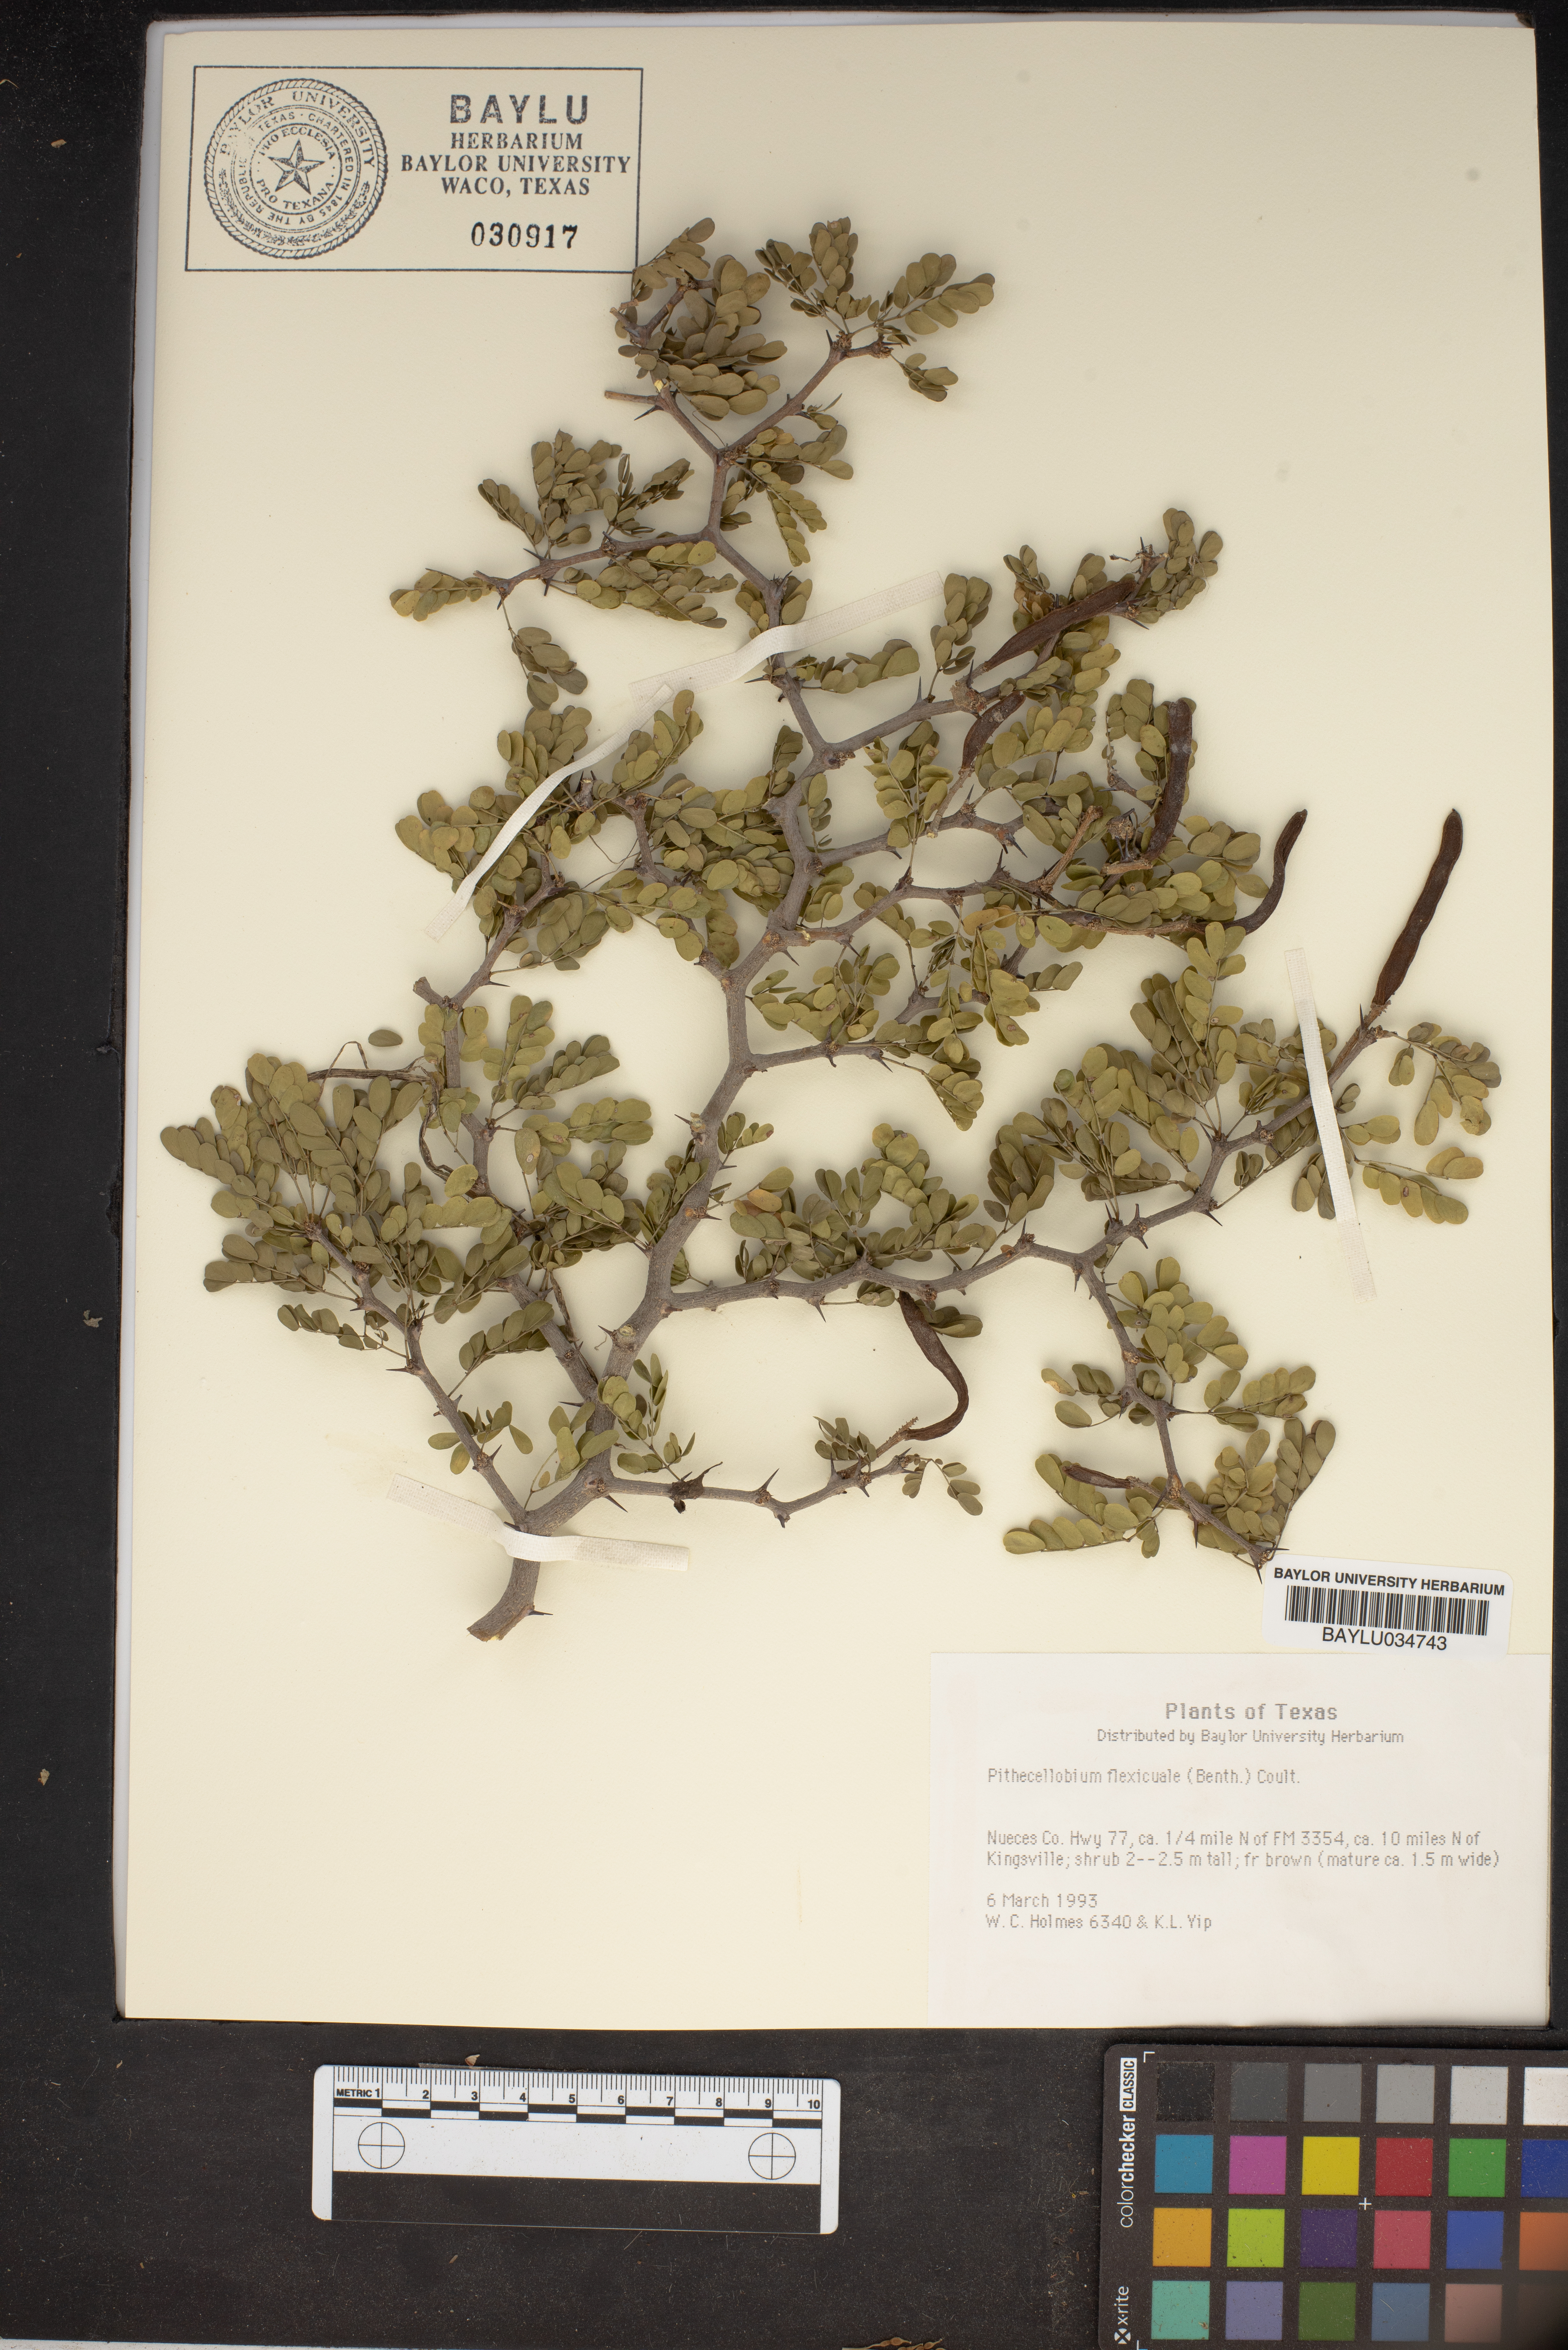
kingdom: Plantae
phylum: Tracheophyta
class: Magnoliopsida
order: Fabales
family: Fabaceae
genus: Ebenopsis
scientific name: Ebenopsis ebano
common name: Ebony blackbead
